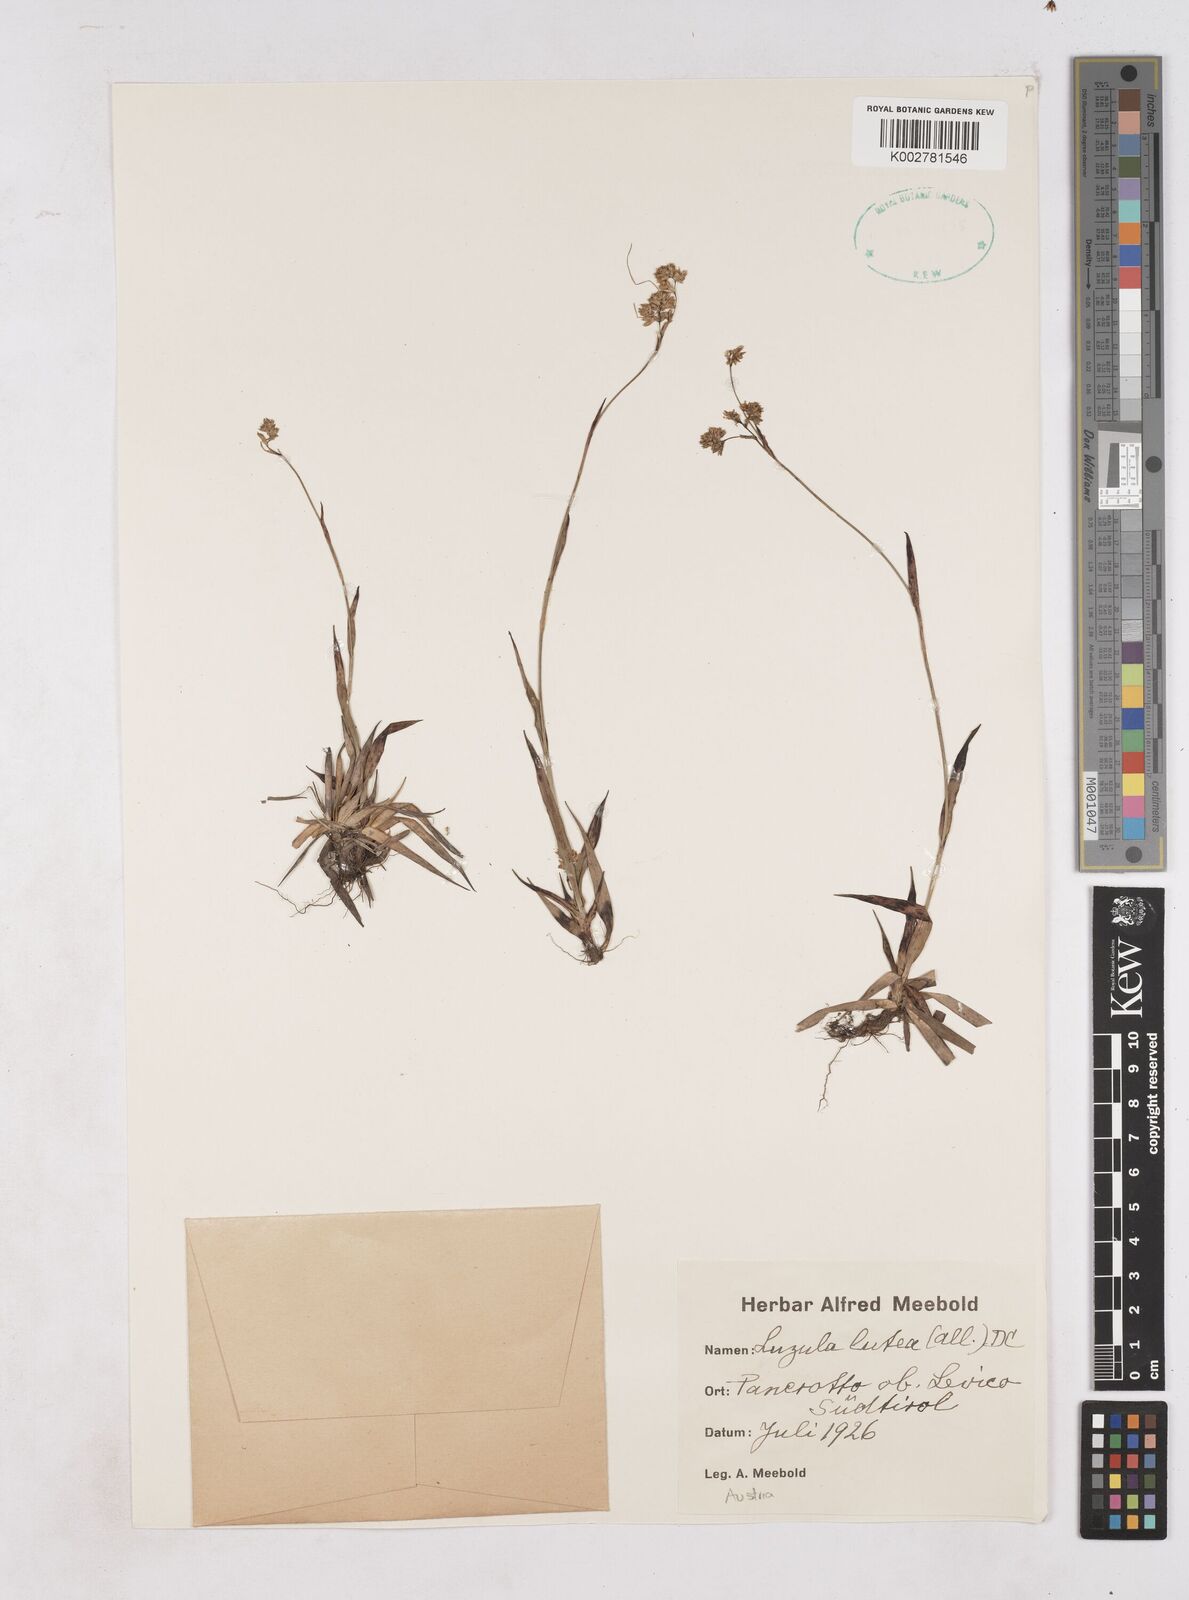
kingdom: Plantae
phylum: Tracheophyta
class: Liliopsida
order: Poales
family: Juncaceae
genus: Luzula
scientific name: Luzula lutea
